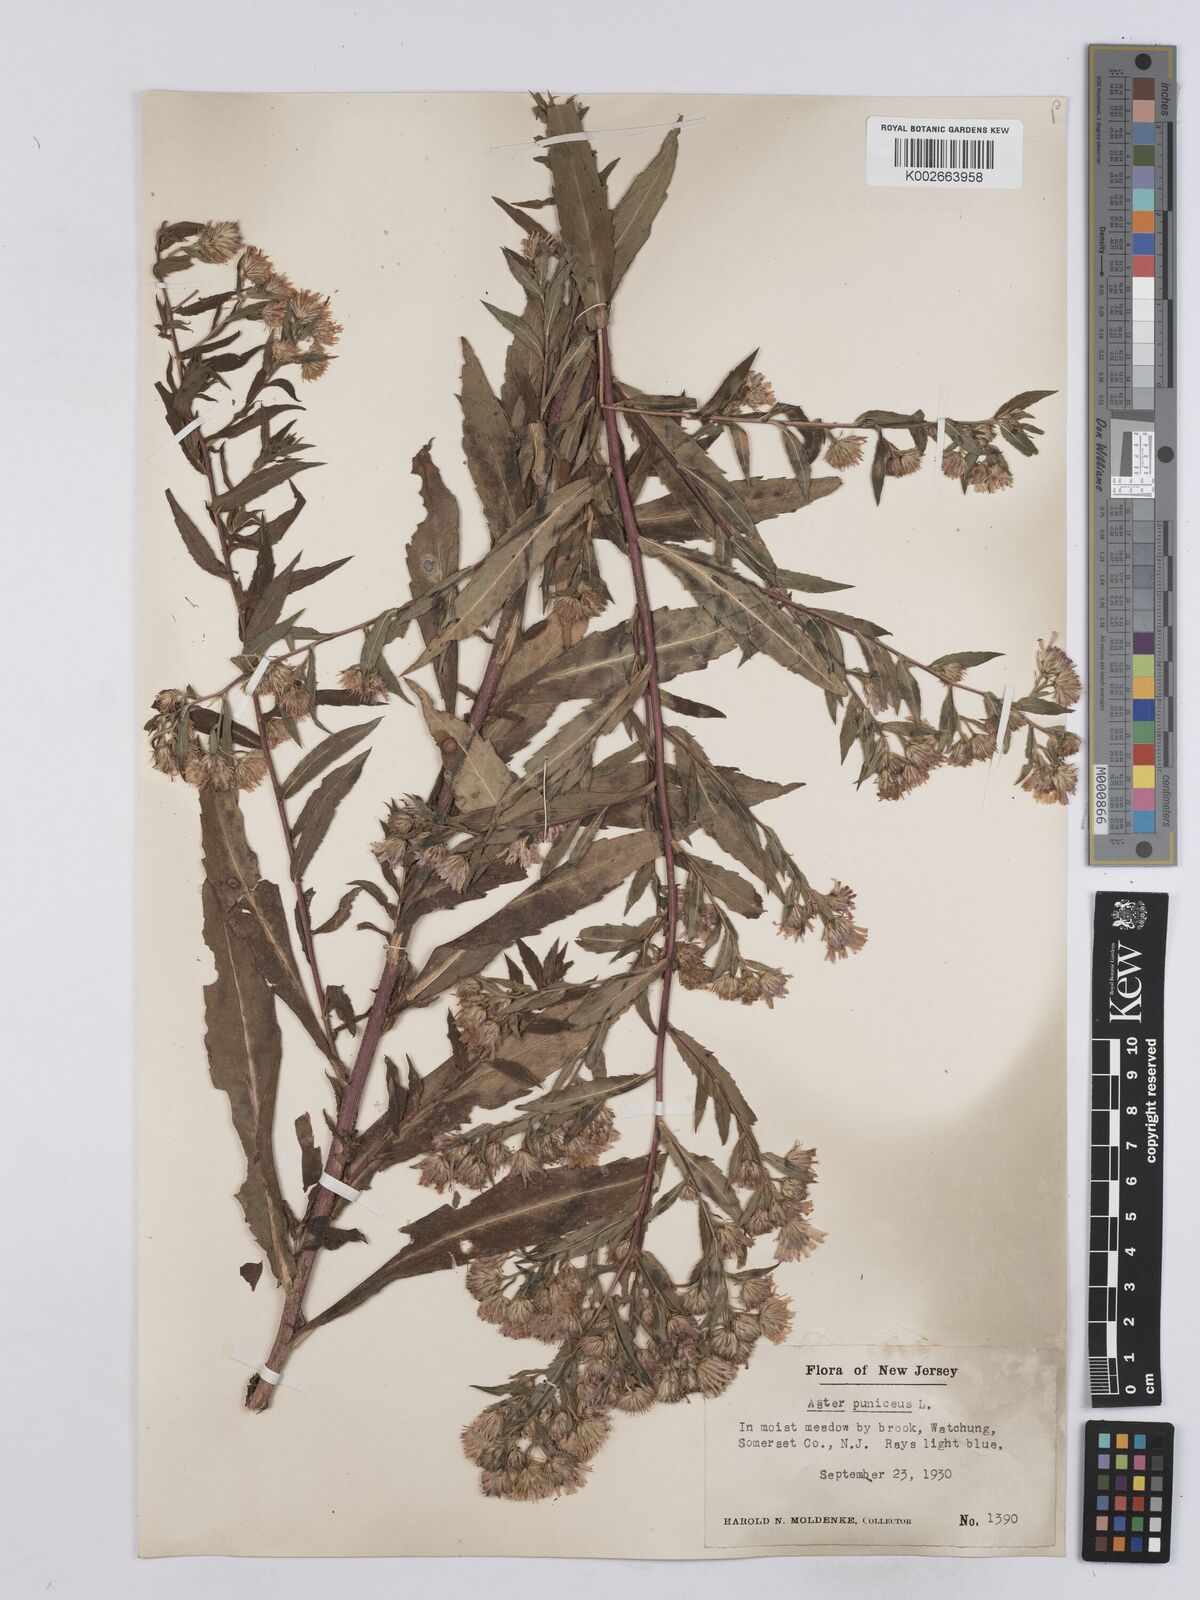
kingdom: Plantae
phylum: Tracheophyta
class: Magnoliopsida
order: Asterales
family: Asteraceae
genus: Symphyotrichum
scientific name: Symphyotrichum puniceum
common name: Bog aster
